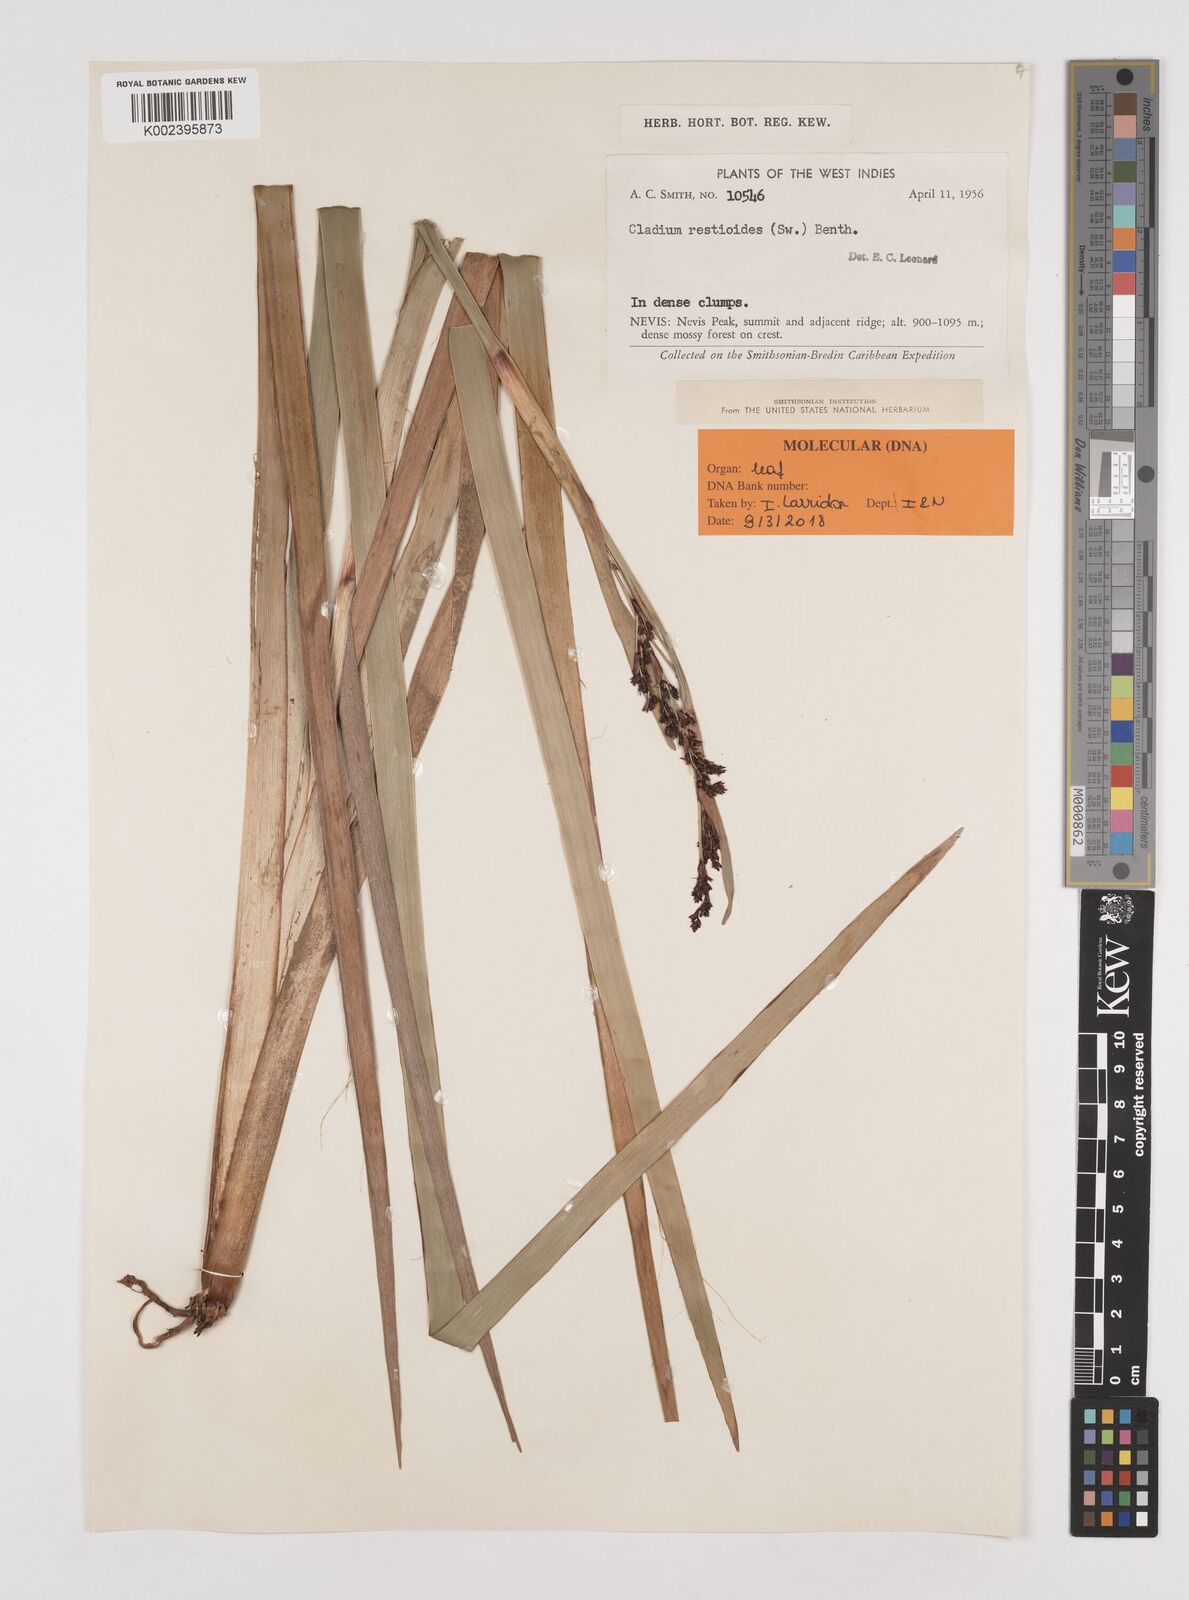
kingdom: Plantae
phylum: Tracheophyta
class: Liliopsida
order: Poales
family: Cyperaceae
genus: Machaerina
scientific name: Machaerina restioides
